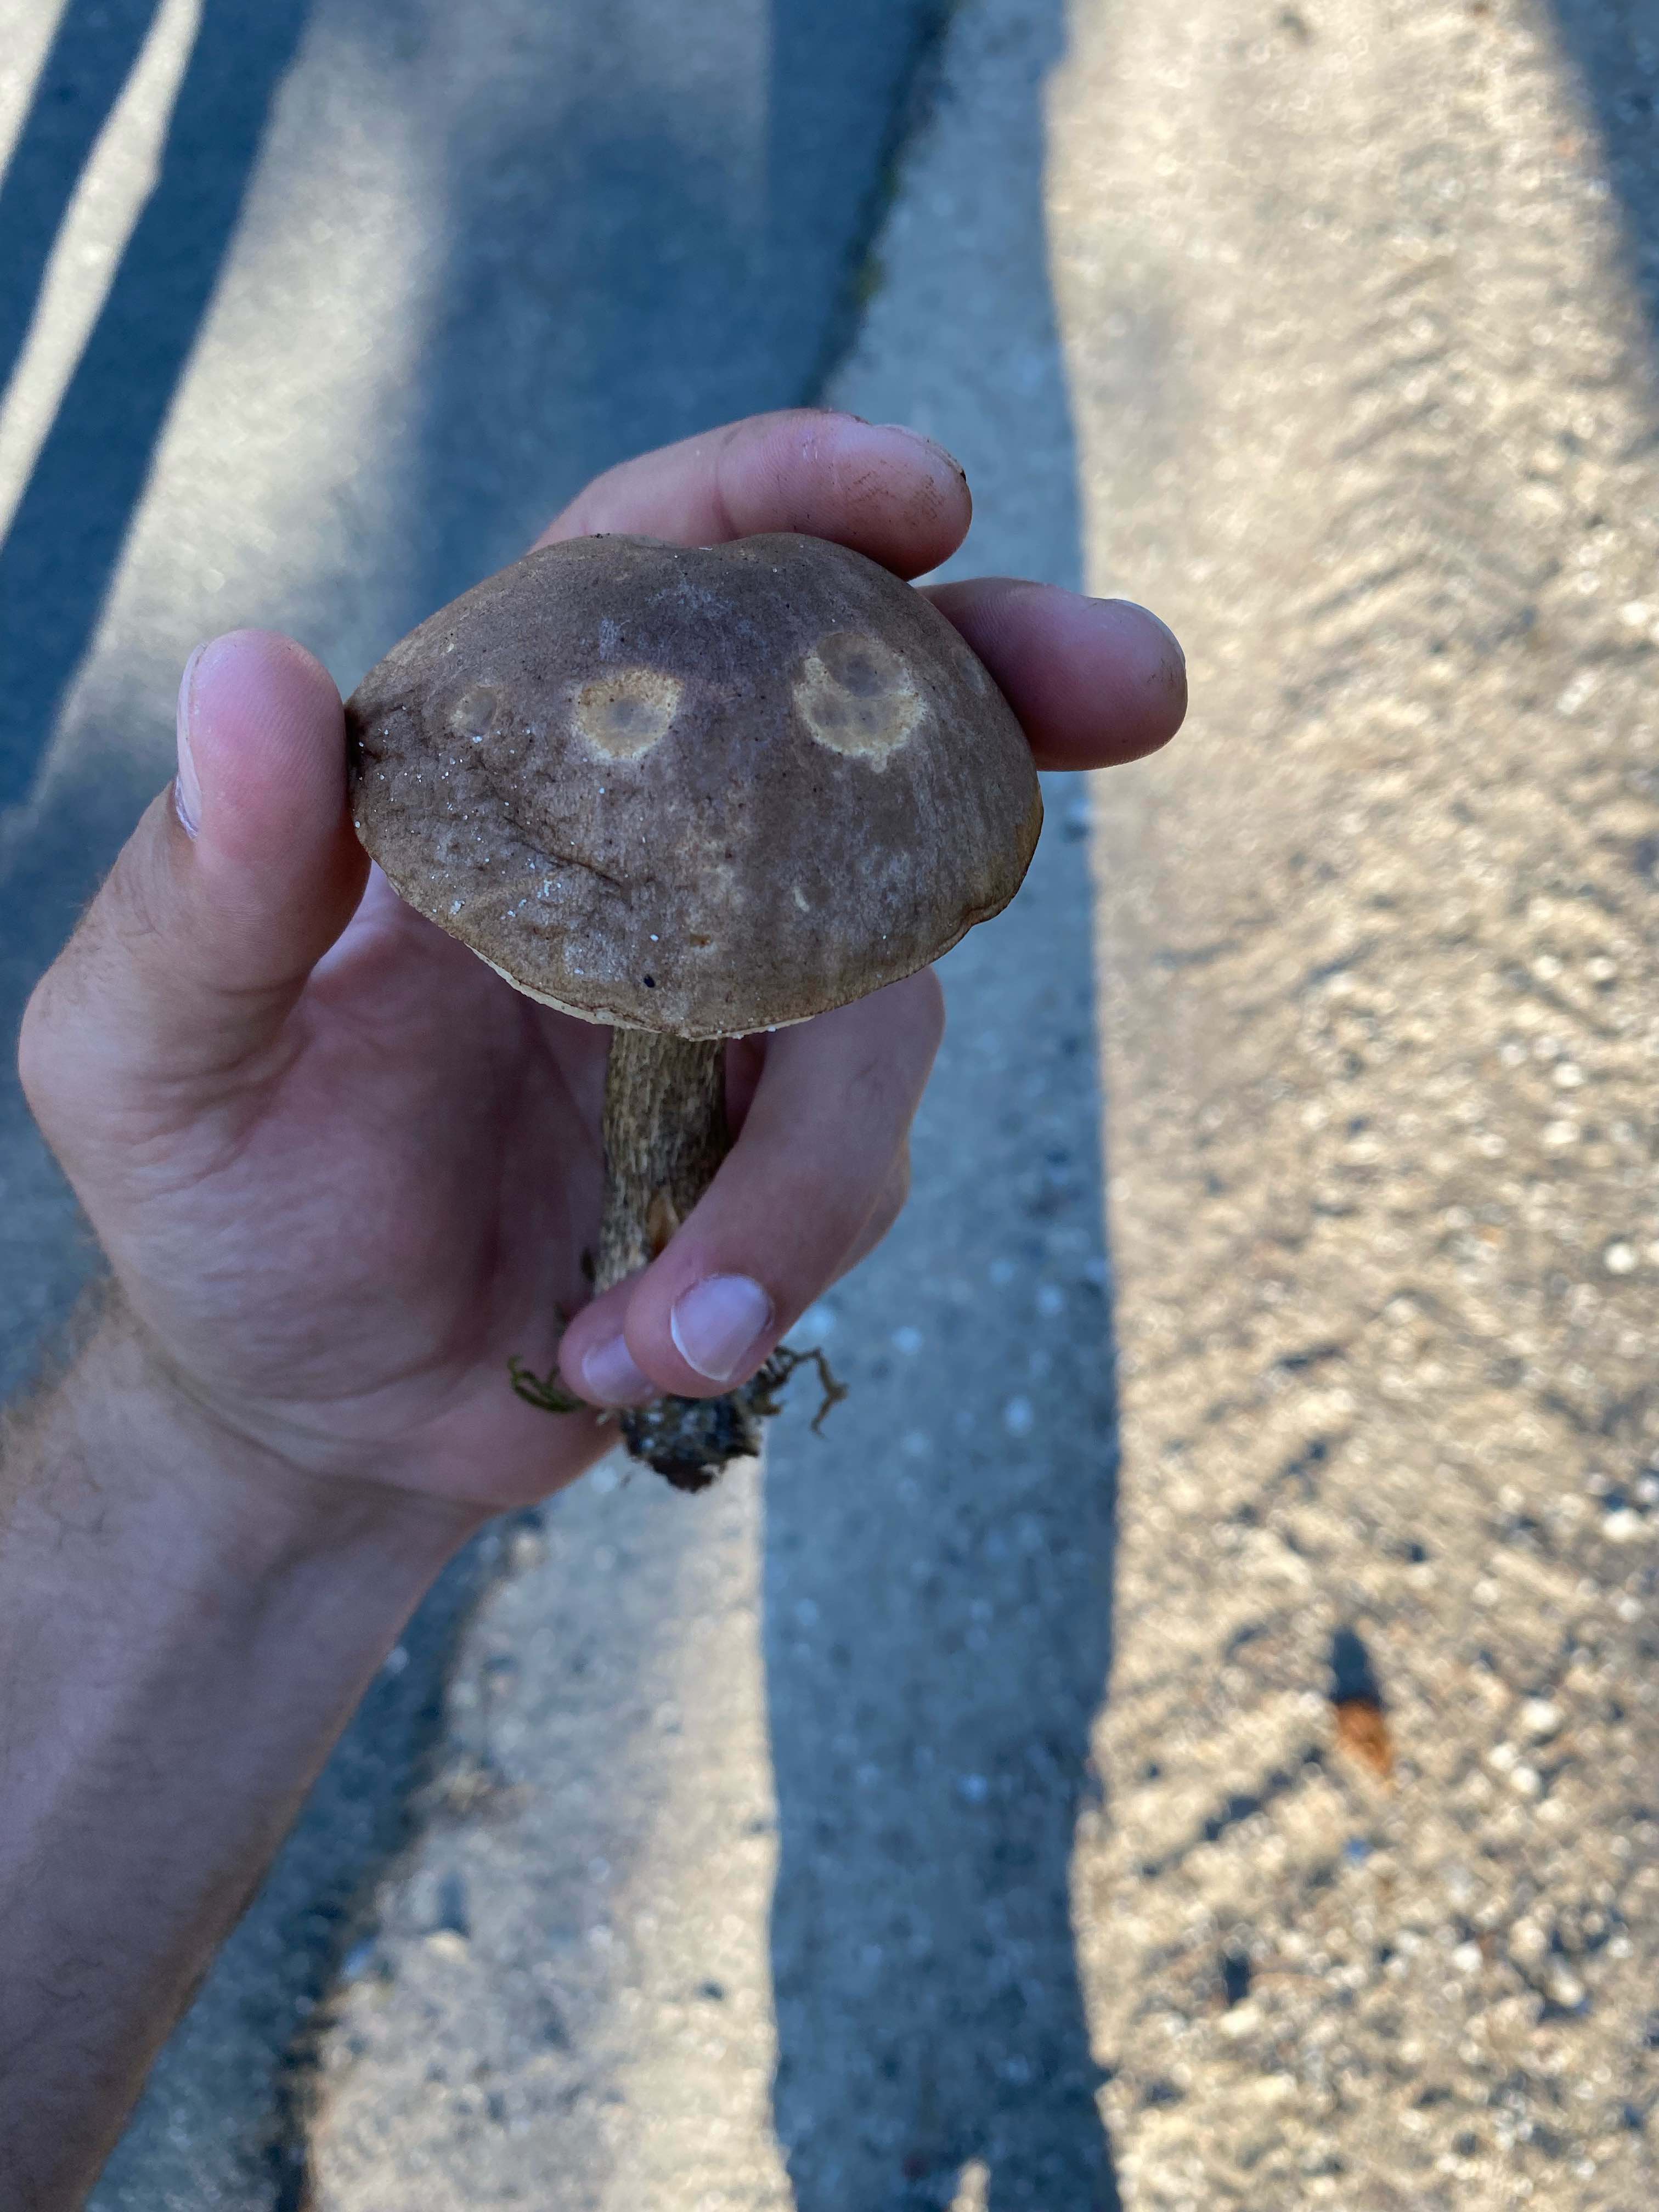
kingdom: Fungi
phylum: Basidiomycota
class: Agaricomycetes
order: Boletales
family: Boletaceae
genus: Leccinum
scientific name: Leccinum scabrum
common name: brun skælrørhat
